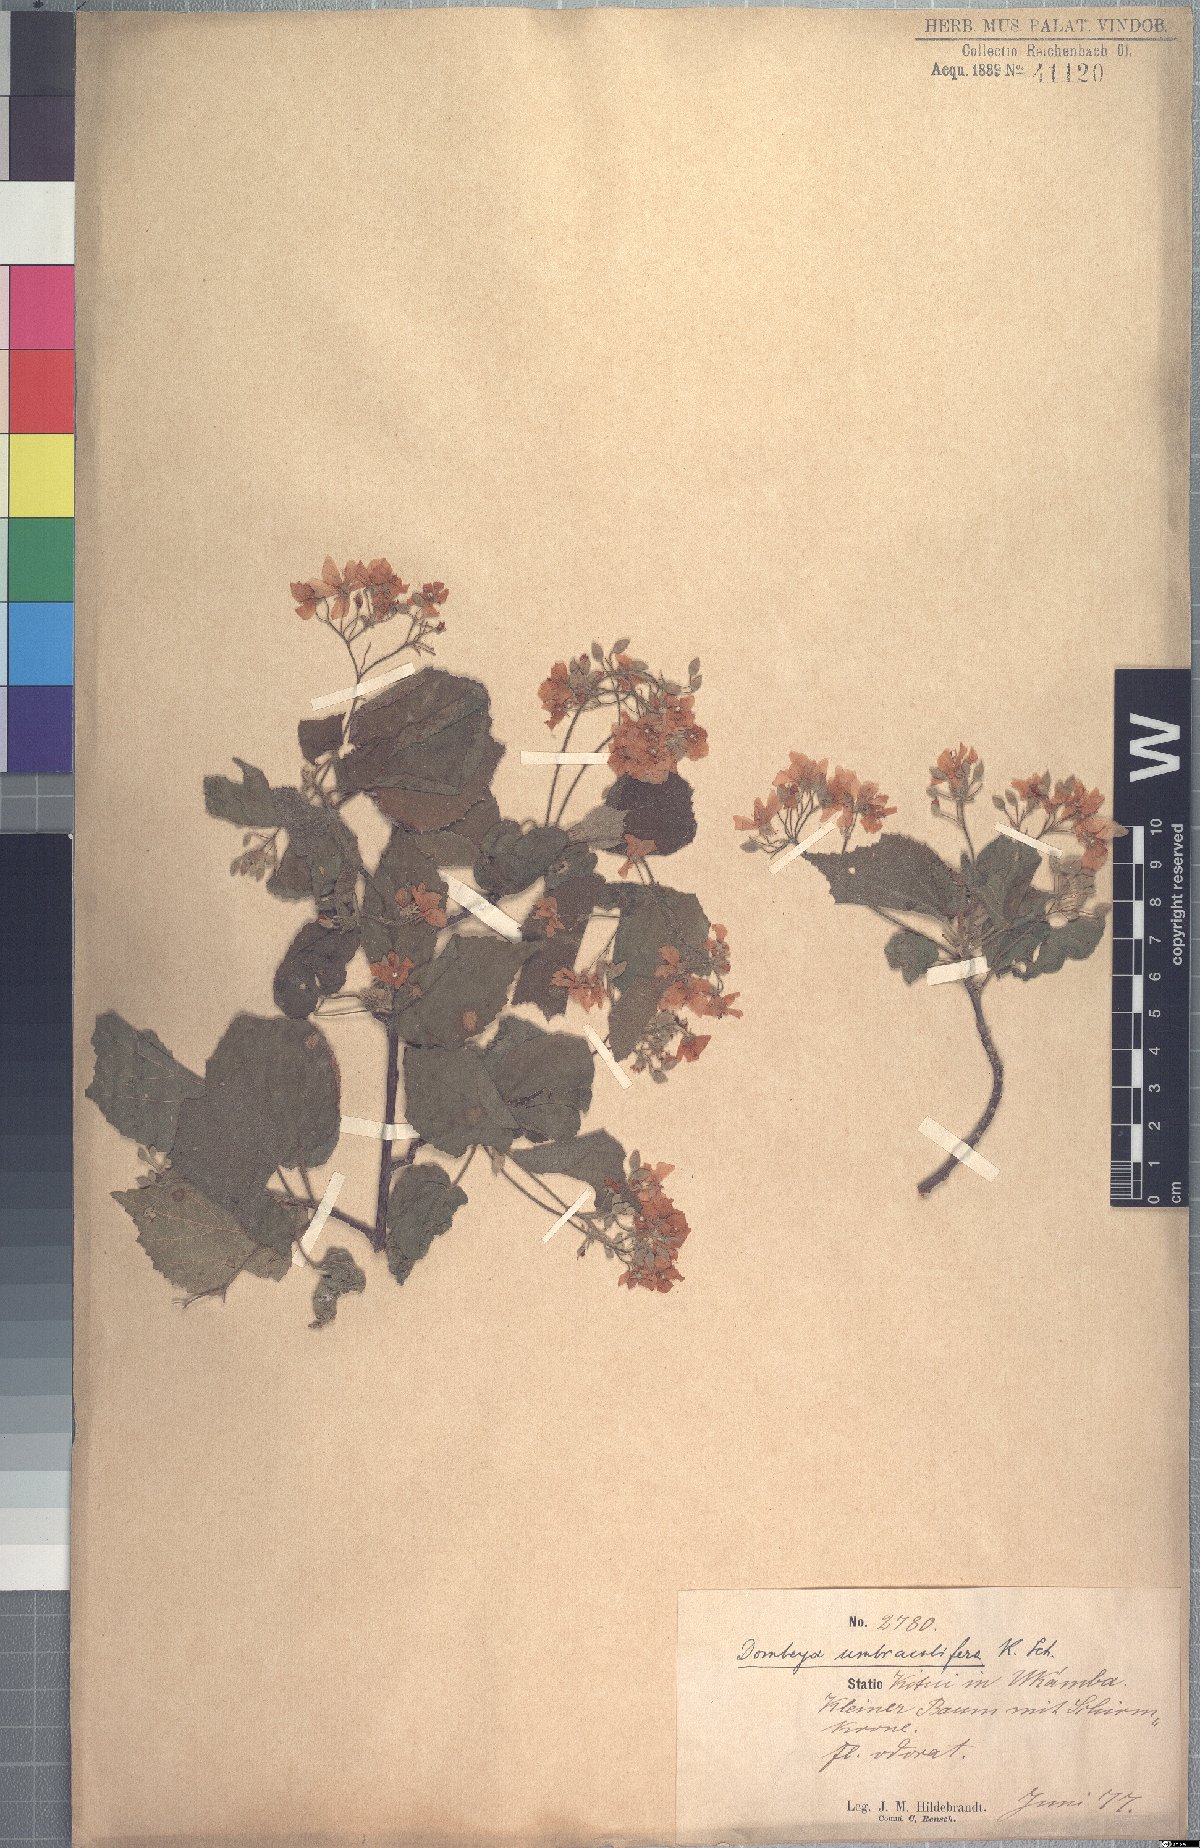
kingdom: Plantae
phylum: Tracheophyta
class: Magnoliopsida
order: Malvales
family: Malvaceae
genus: Dombeya
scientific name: Dombeya kirkii
